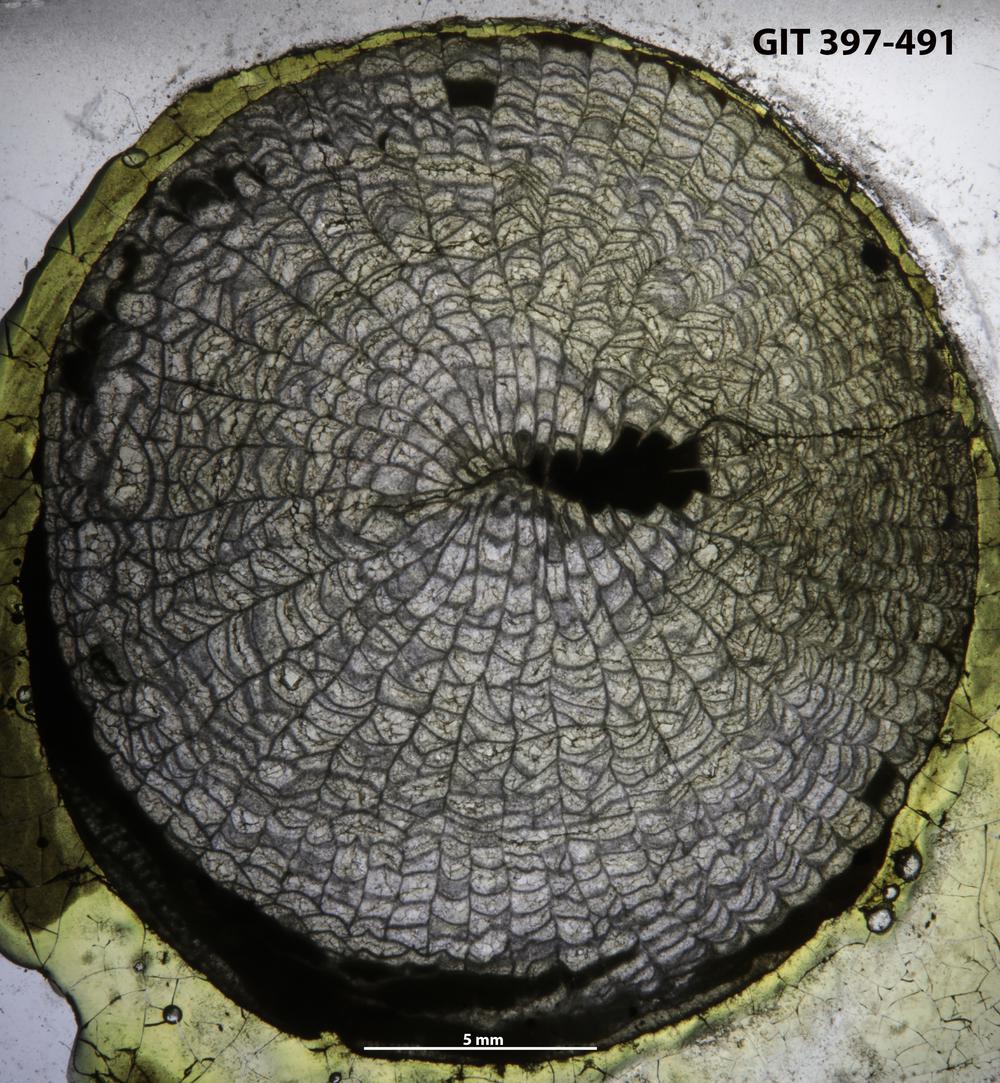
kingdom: Animalia
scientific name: Animalia
